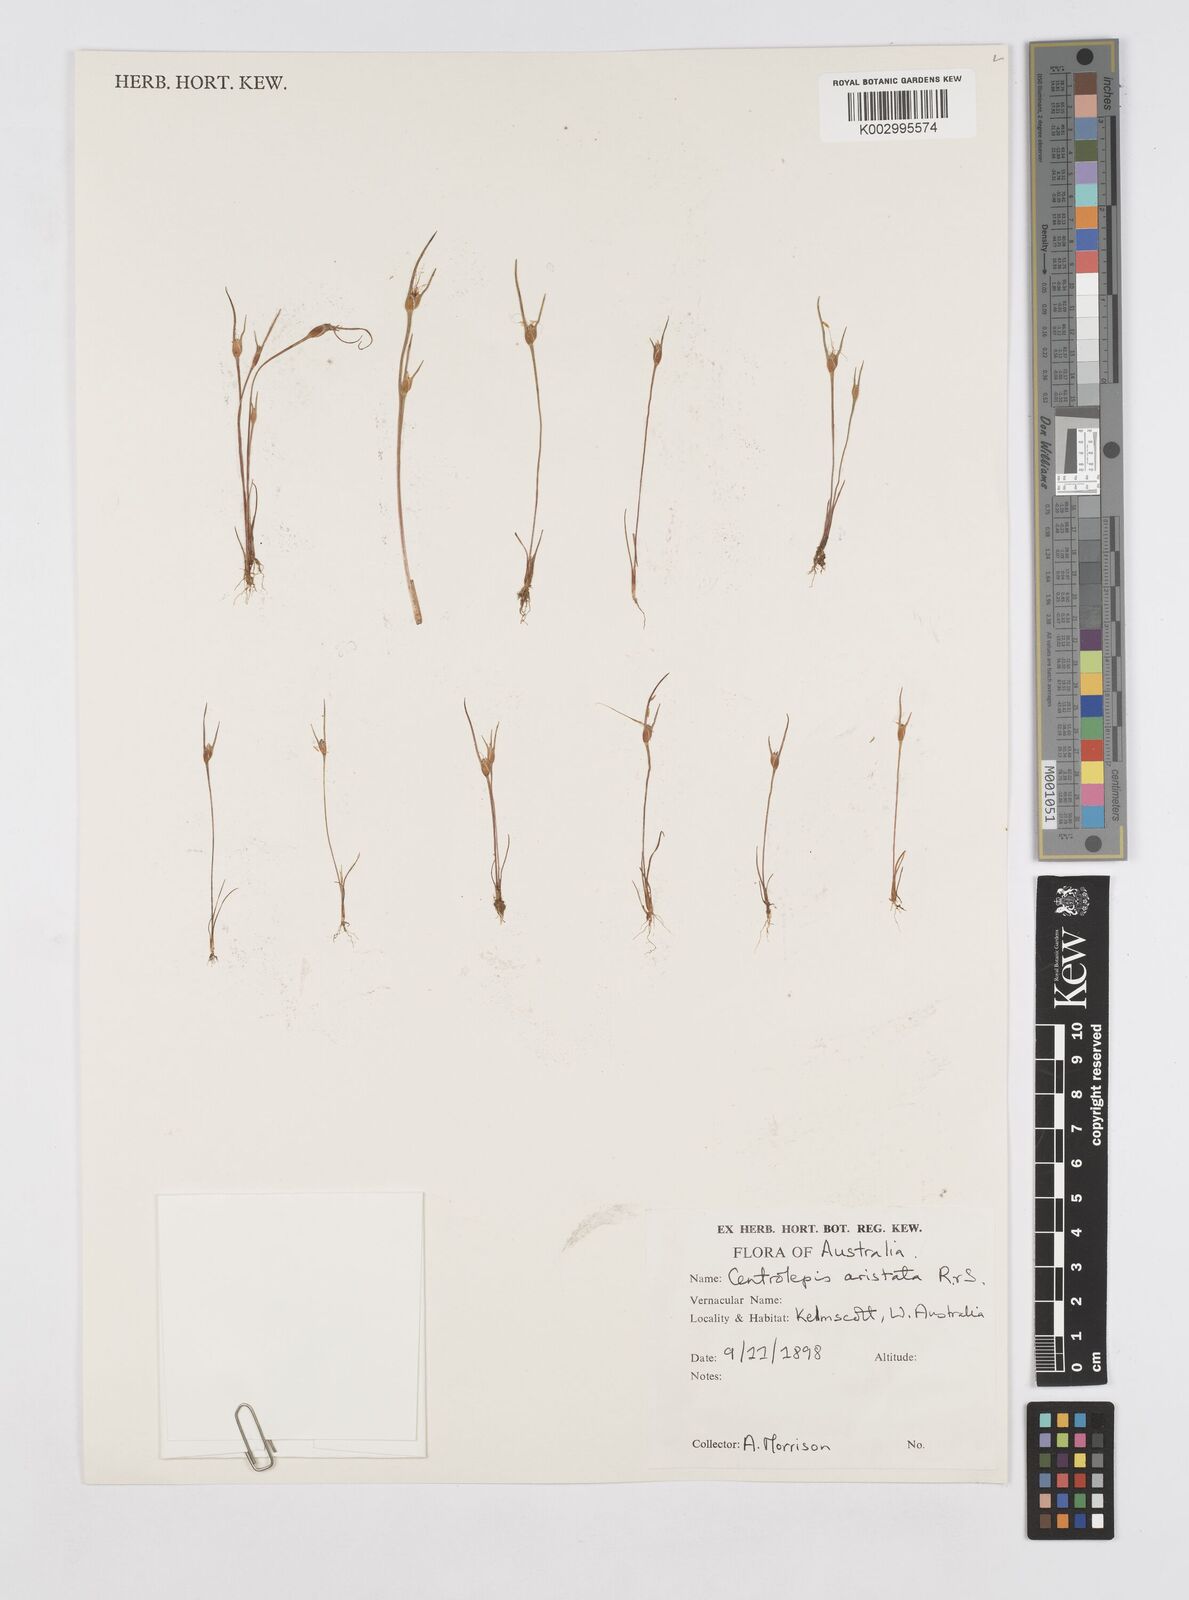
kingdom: Plantae
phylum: Tracheophyta
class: Liliopsida
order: Poales
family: Restionaceae
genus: Centrolepis
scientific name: Centrolepis aristata
